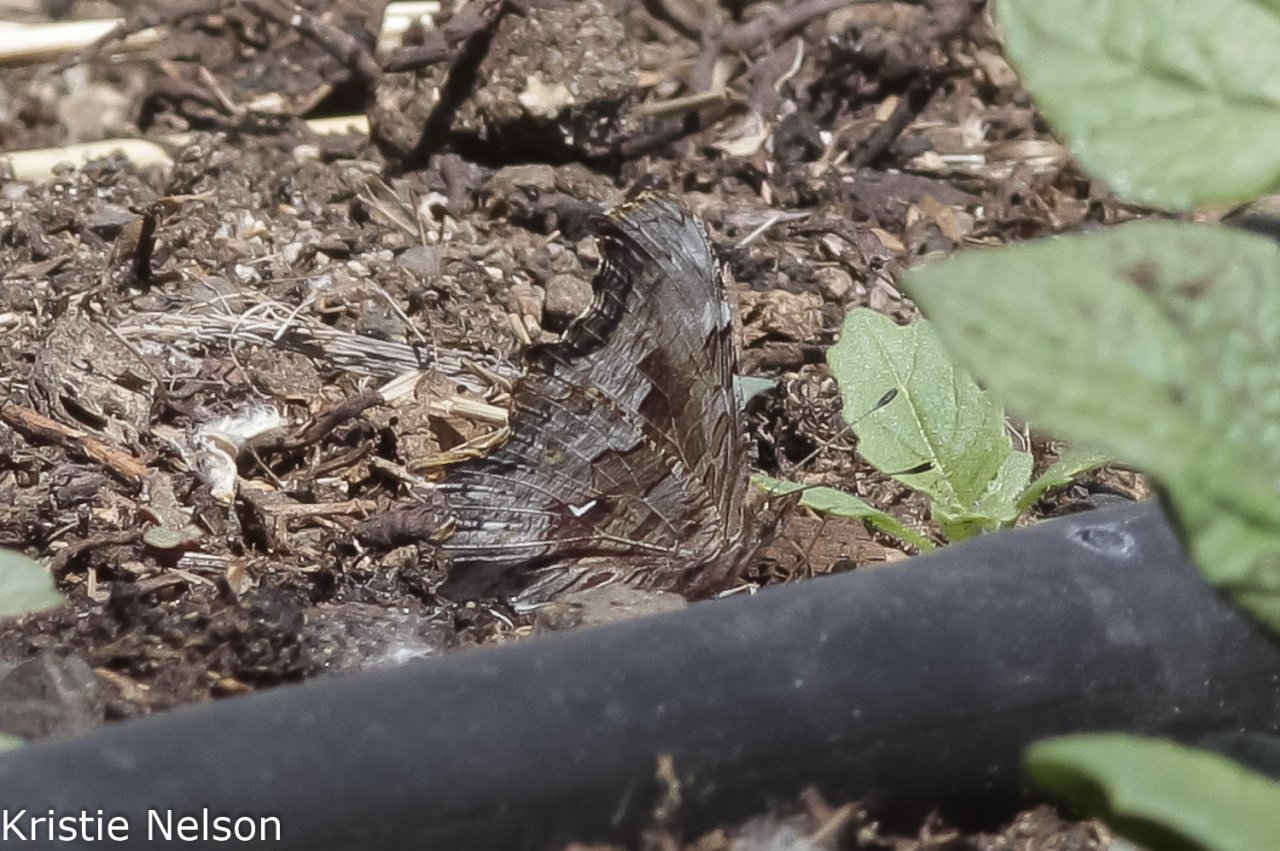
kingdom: Animalia
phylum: Arthropoda
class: Insecta
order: Lepidoptera
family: Nymphalidae
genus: Polygonia
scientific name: Polygonia gracilis
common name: Hoary Comma
